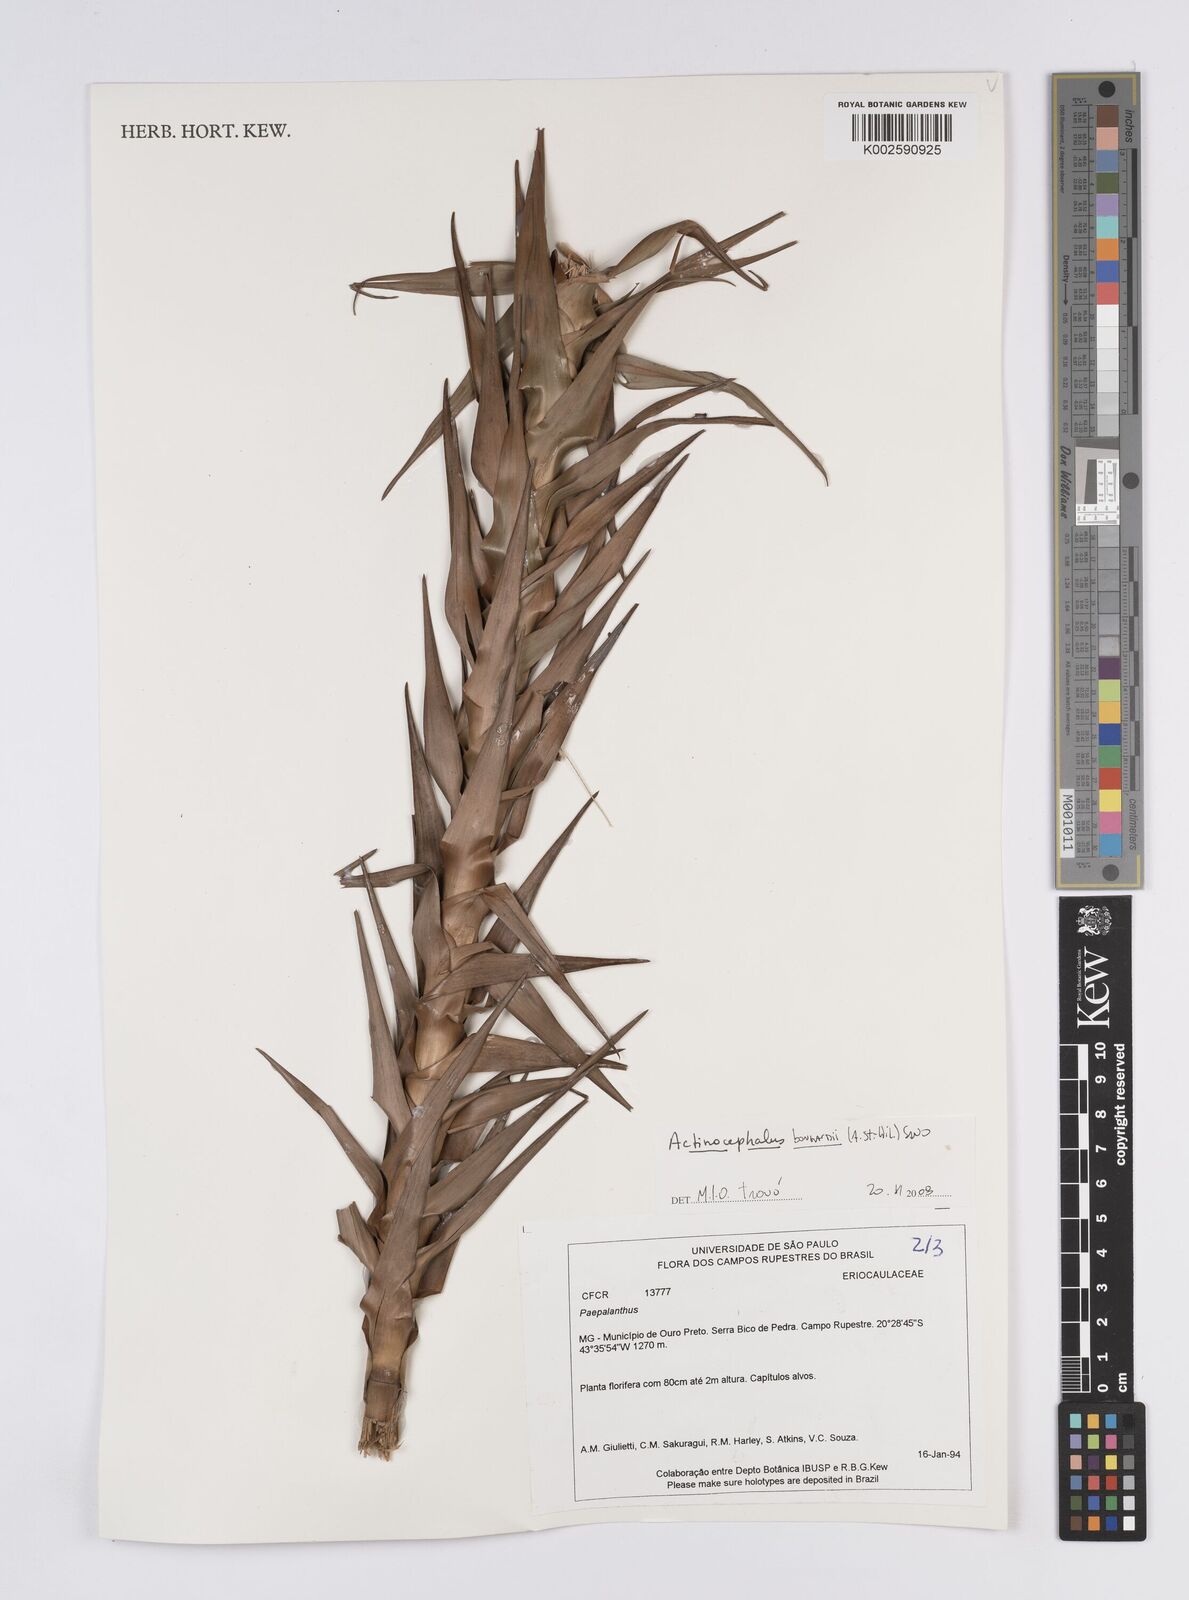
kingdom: Plantae
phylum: Tracheophyta
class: Liliopsida
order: Poales
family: Eriocaulaceae
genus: Paepalanthus
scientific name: Paepalanthus hilairei
